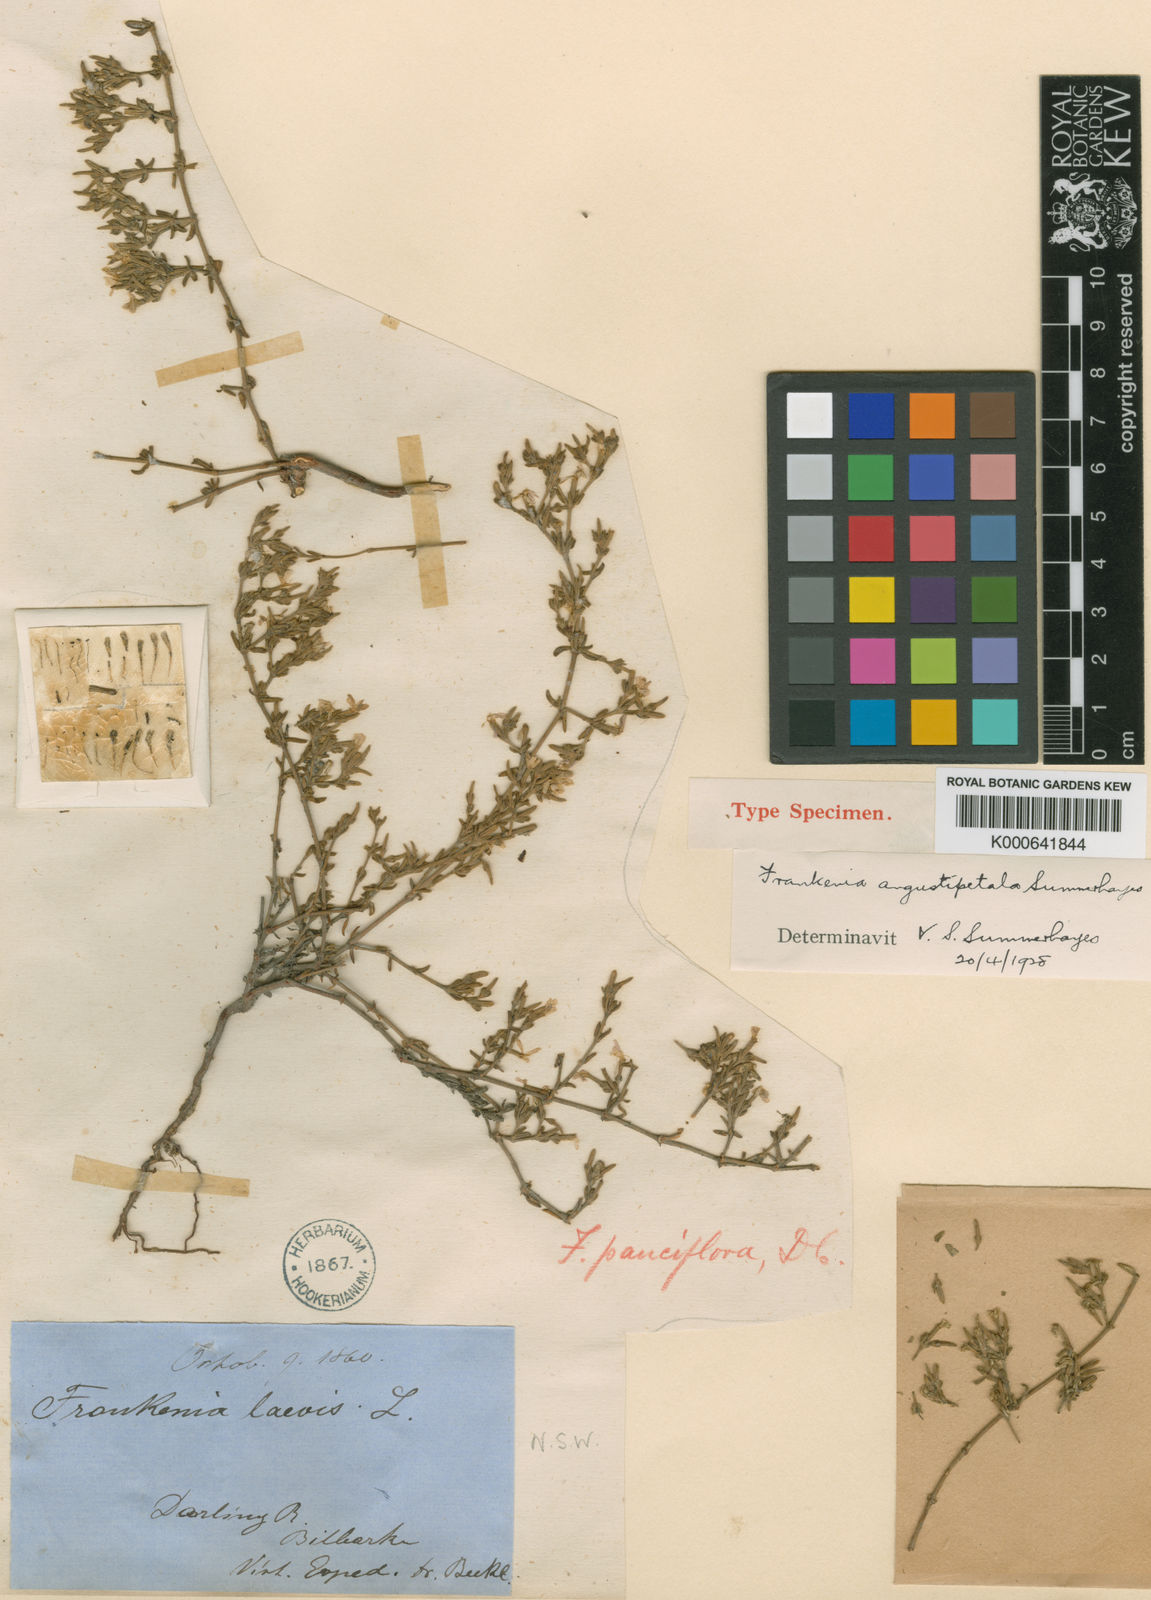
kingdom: Plantae
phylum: Tracheophyta
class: Magnoliopsida
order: Caryophyllales
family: Frankeniaceae
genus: Frankenia
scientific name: Frankenia angustipetala
